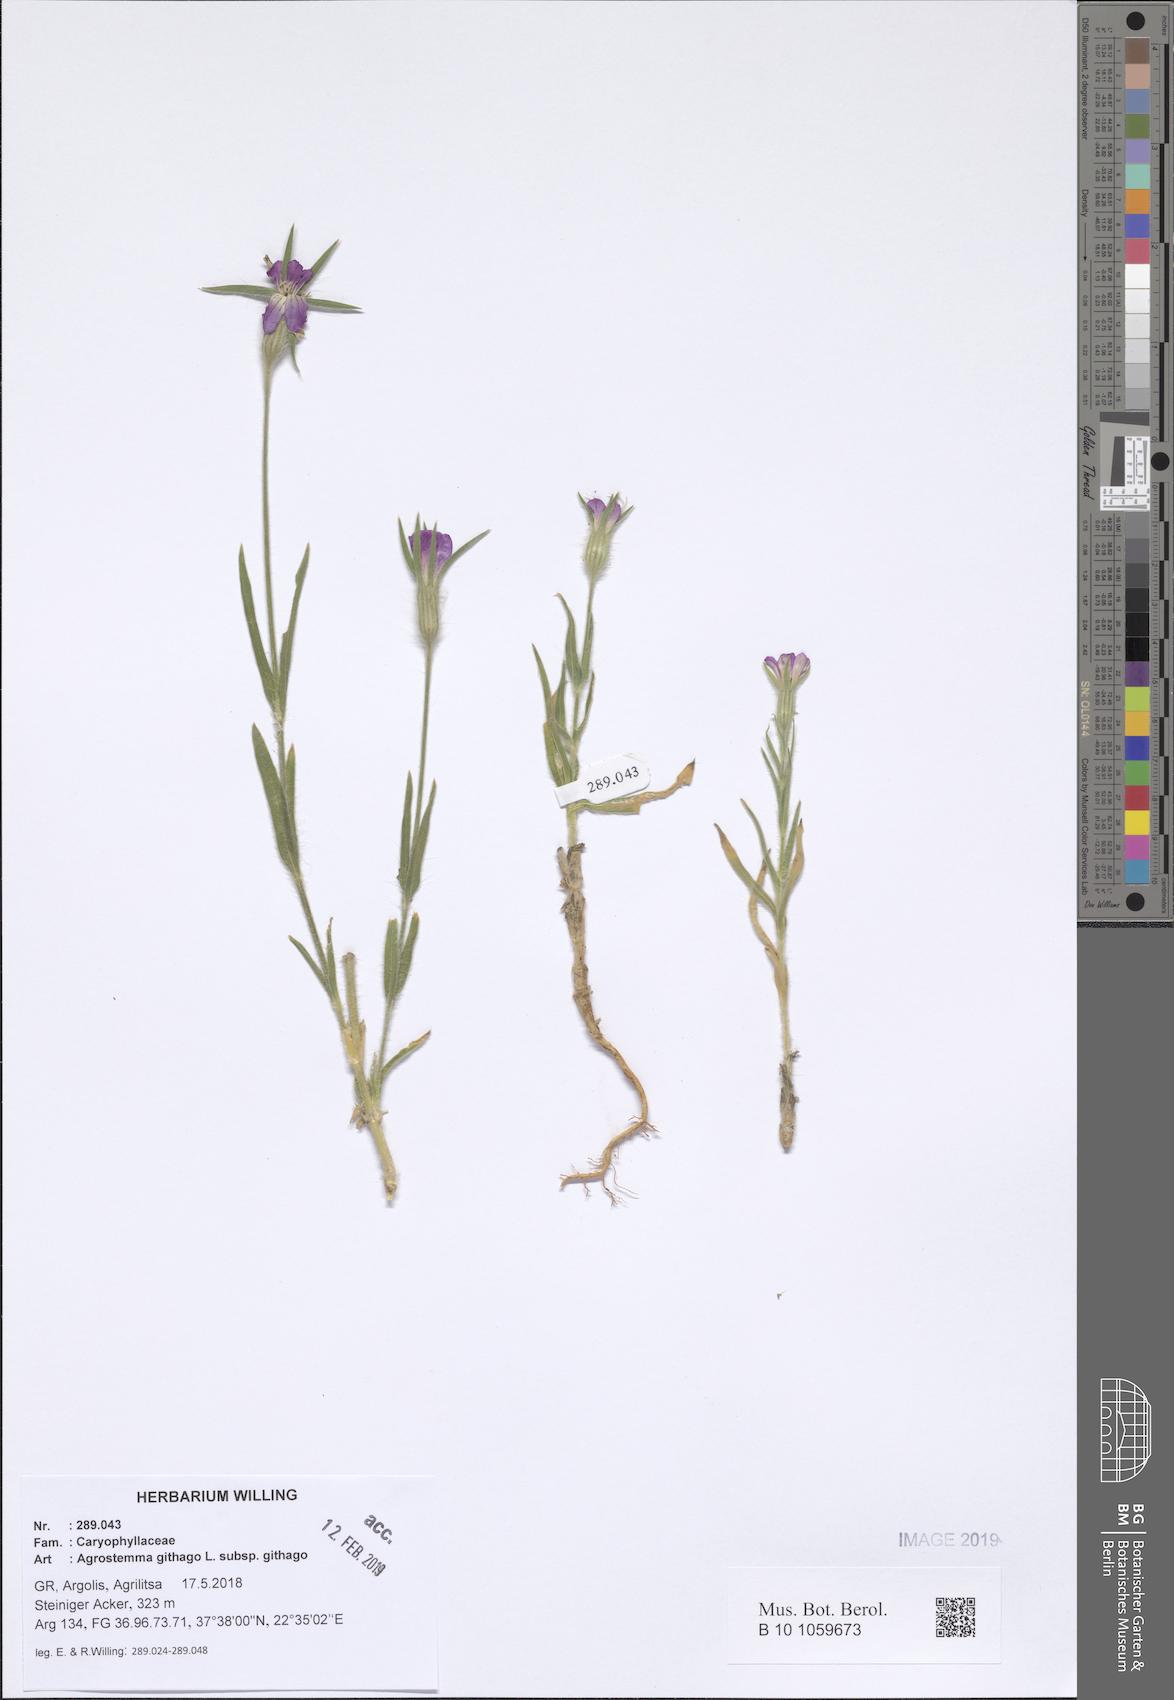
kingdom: Plantae
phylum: Tracheophyta
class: Magnoliopsida
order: Caryophyllales
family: Caryophyllaceae
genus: Agrostemma
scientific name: Agrostemma githago
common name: Common corncockle
